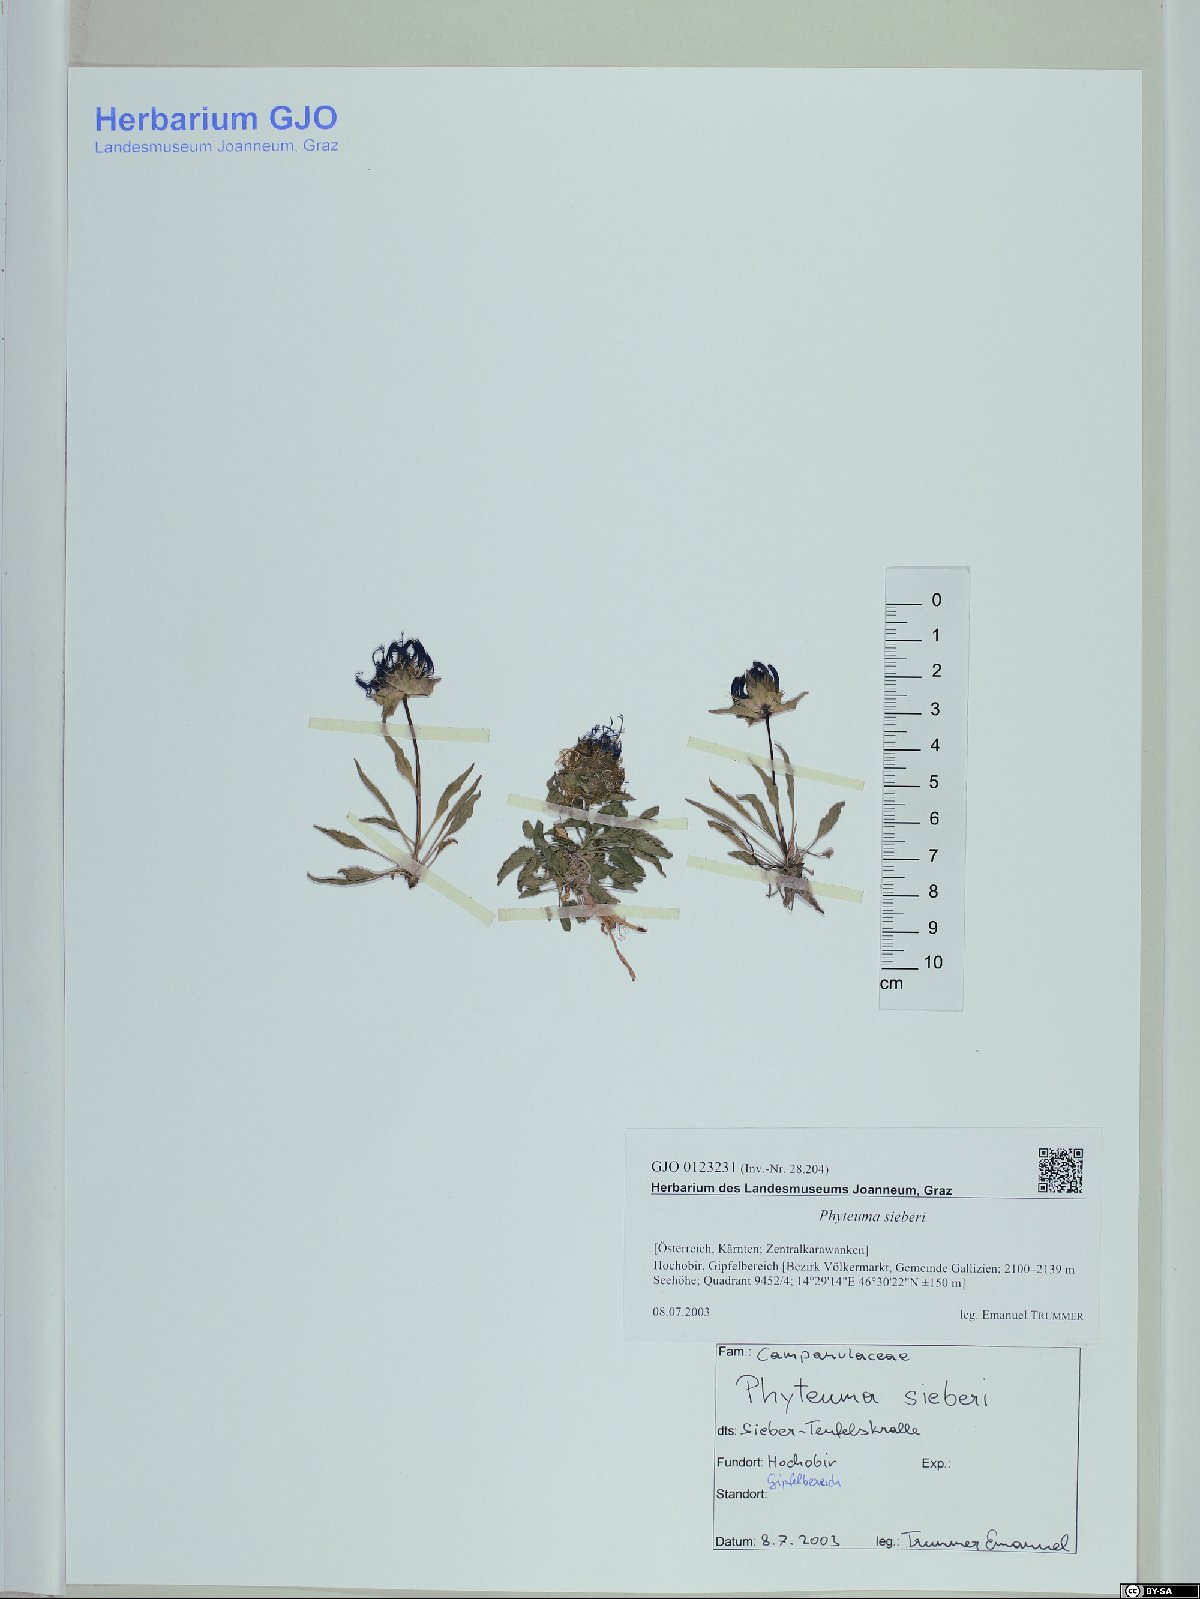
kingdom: Plantae
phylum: Tracheophyta
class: Magnoliopsida
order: Asterales
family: Campanulaceae
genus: Phyteuma
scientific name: Phyteuma sieberi
